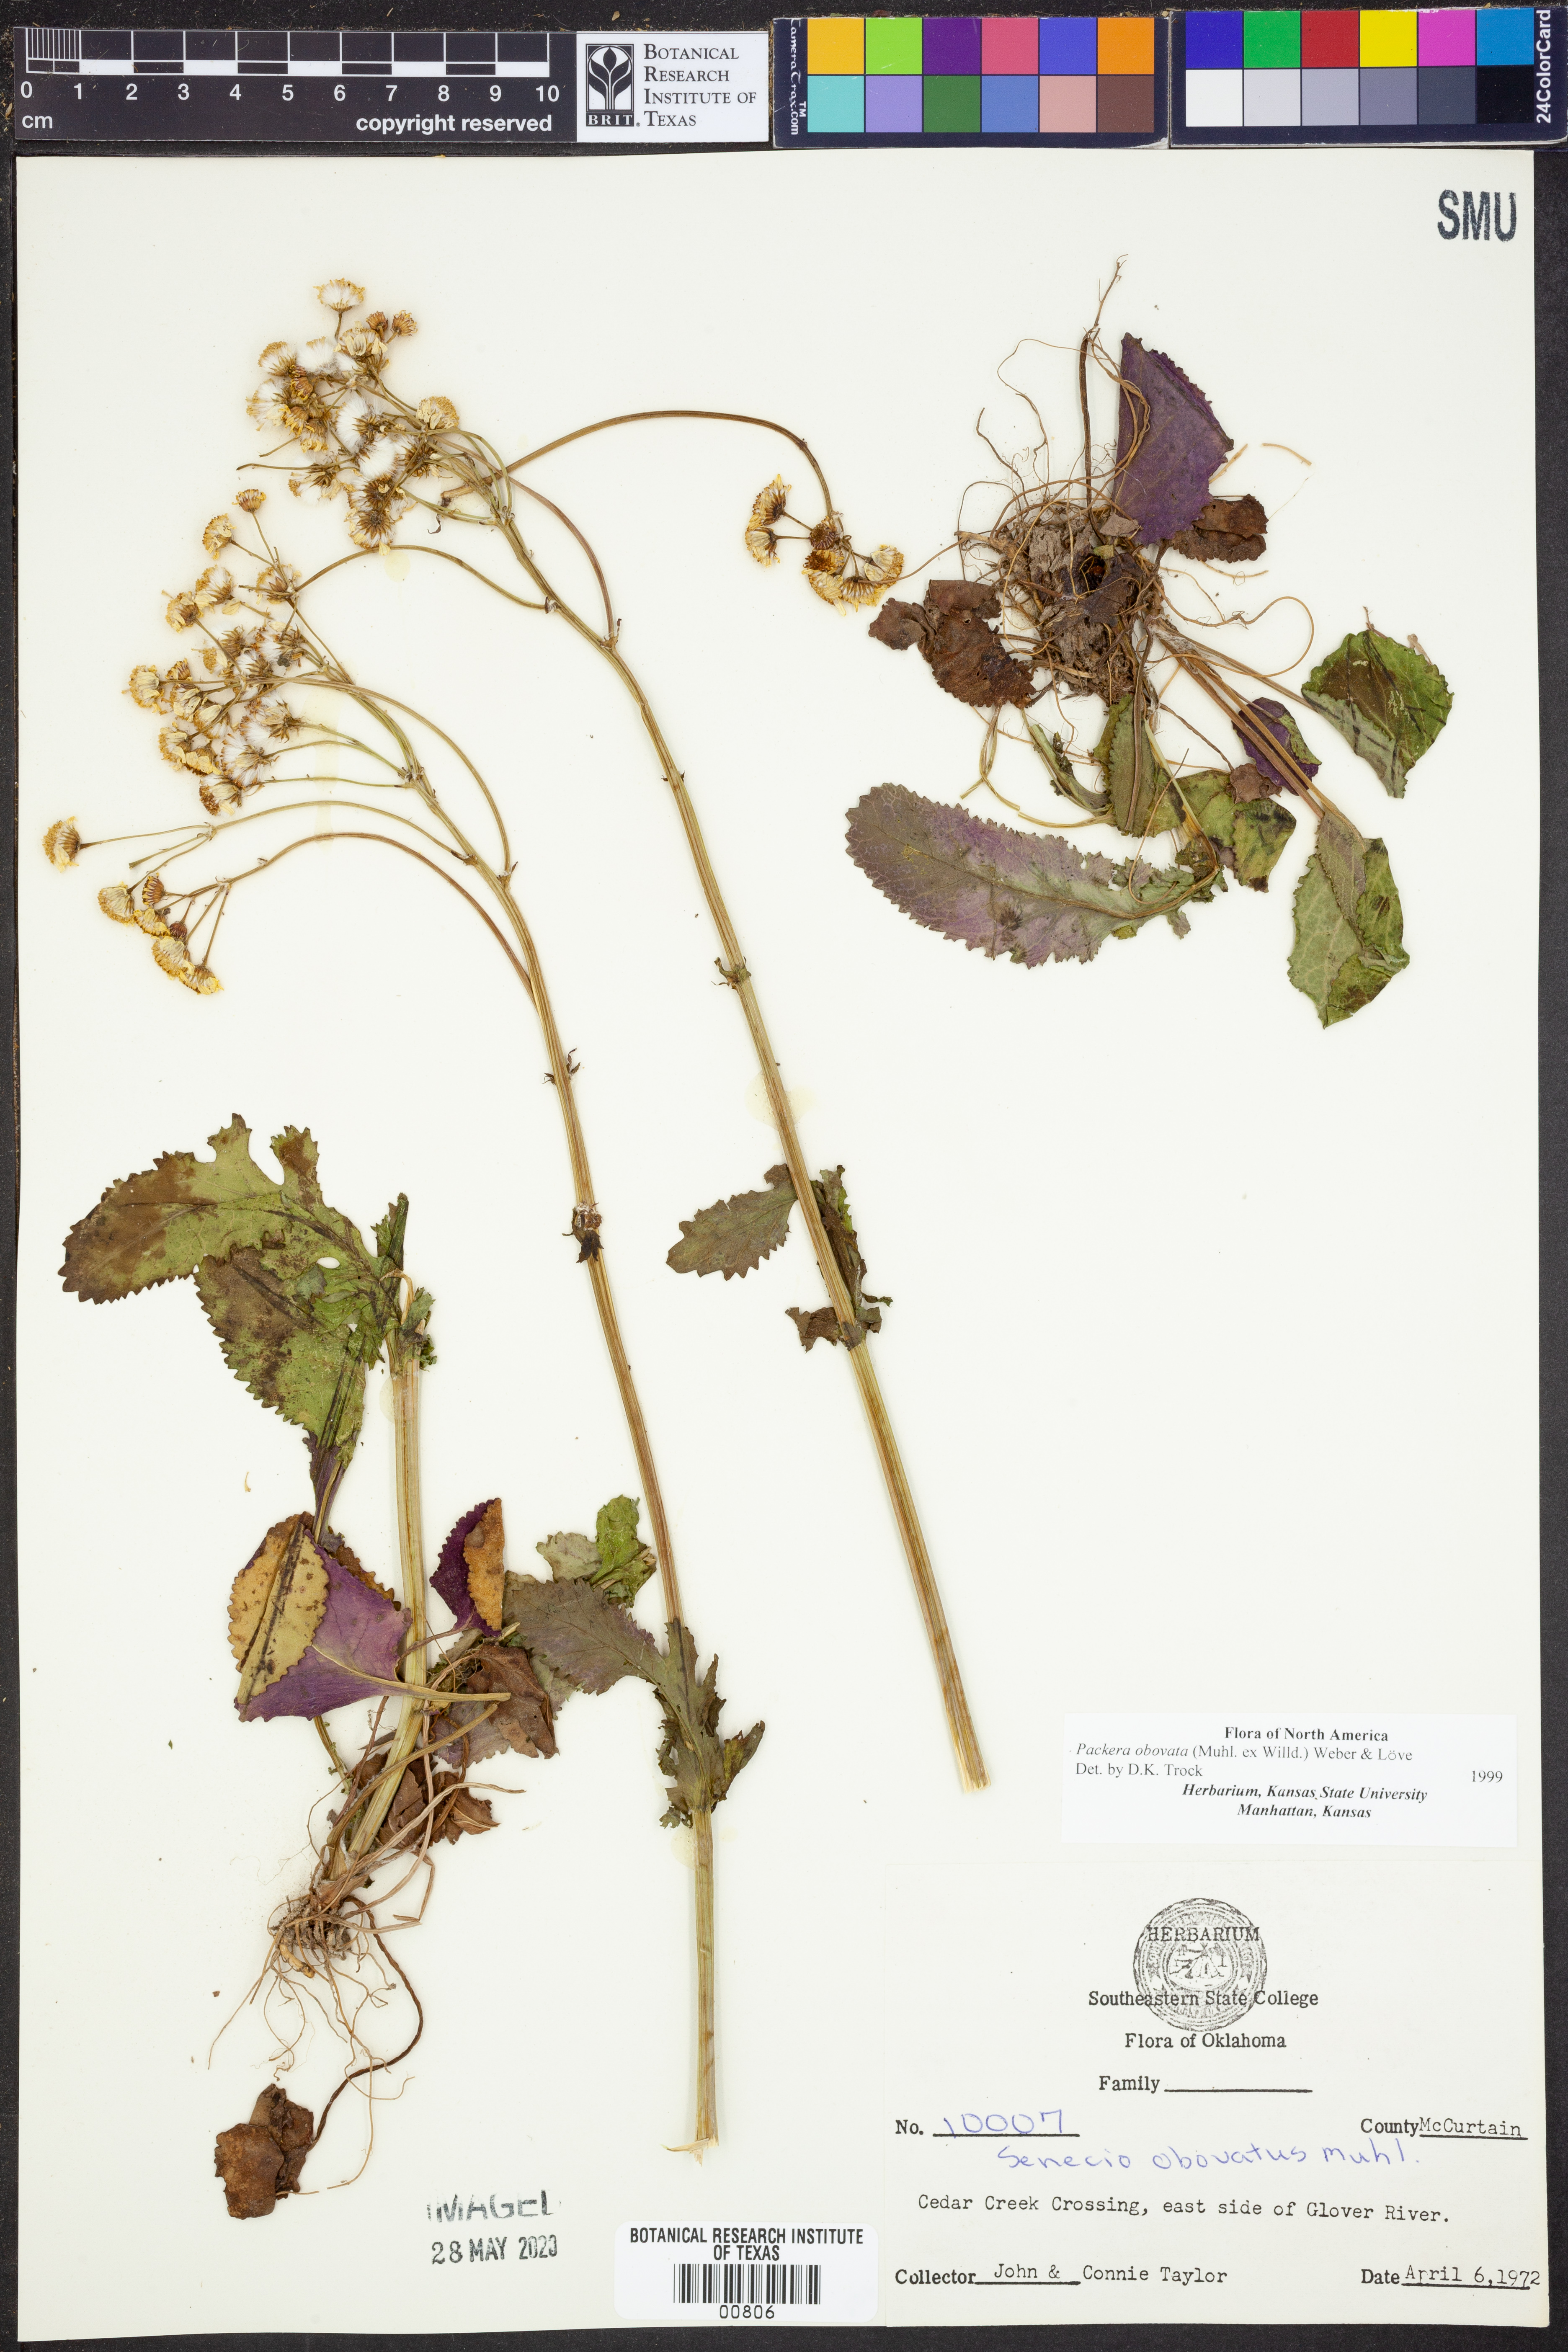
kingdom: Plantae
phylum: Tracheophyta
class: Magnoliopsida
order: Asterales
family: Asteraceae
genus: Packera
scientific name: Packera obovata
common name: Round-leaf ragwort
